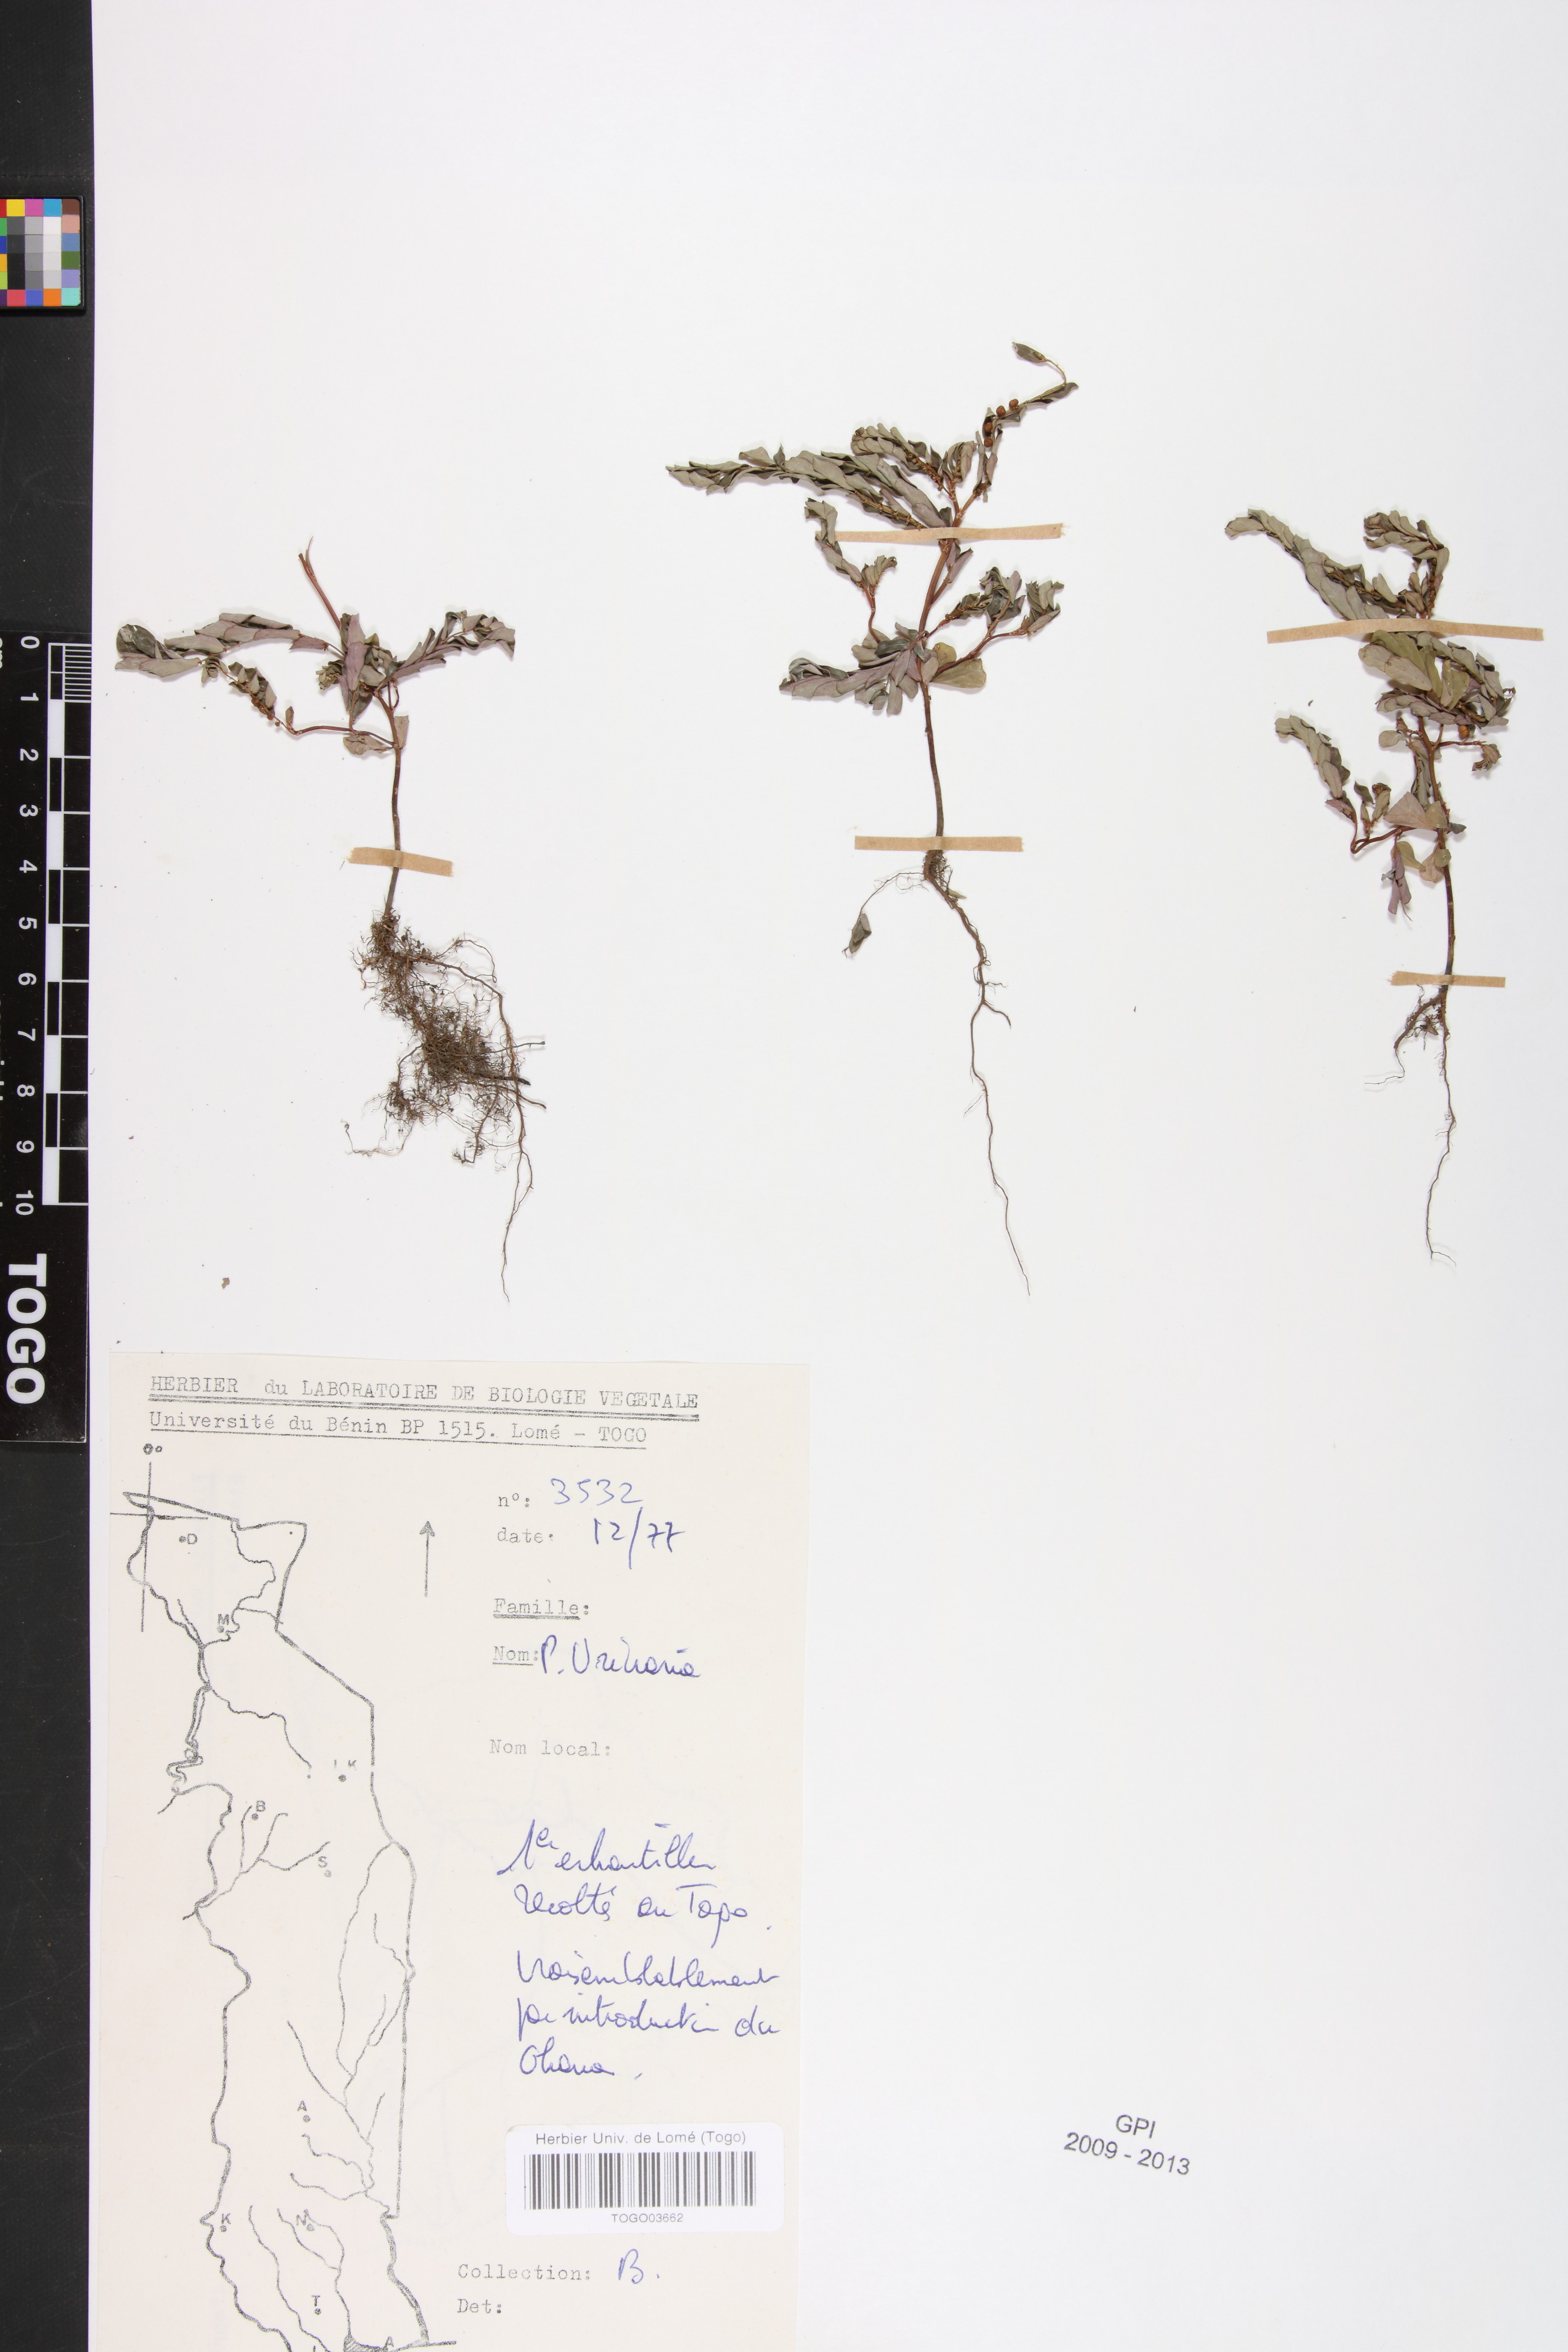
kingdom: Plantae
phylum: Tracheophyta
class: Magnoliopsida
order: Malpighiales
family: Phyllanthaceae
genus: Phyllanthus
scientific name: Phyllanthus urinaria
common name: Chamber bitter
